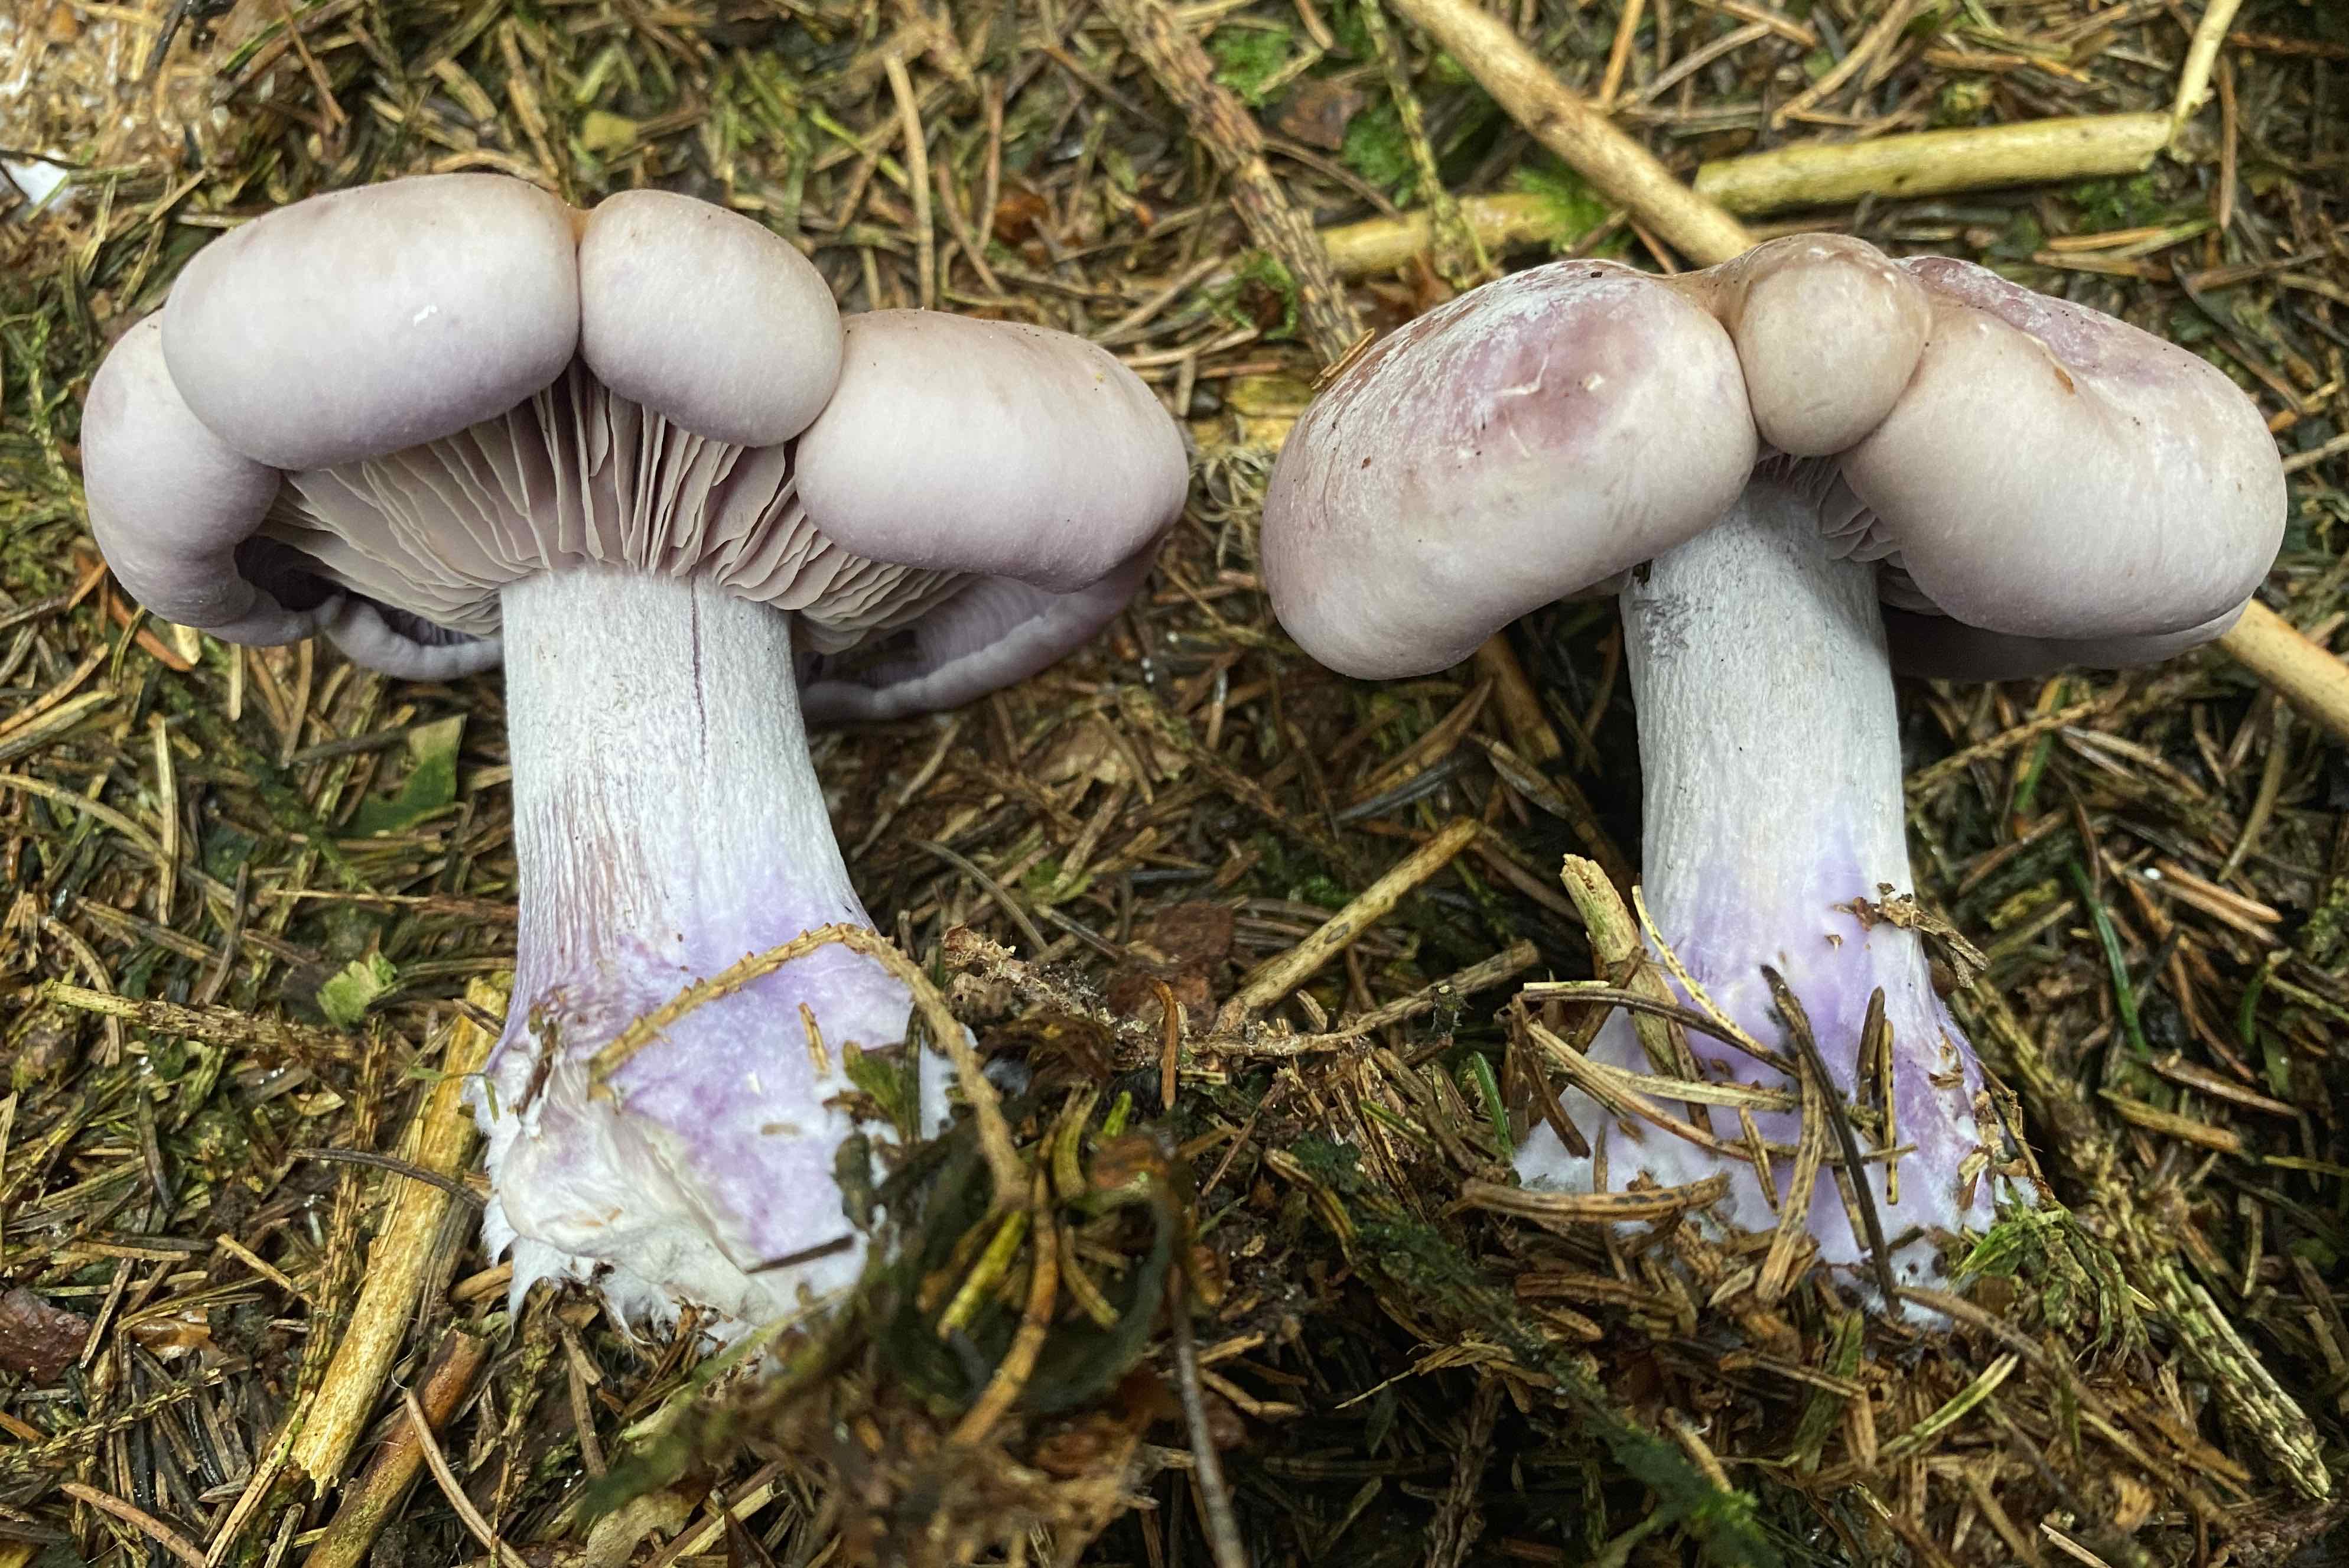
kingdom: Fungi
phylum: Basidiomycota
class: Agaricomycetes
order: Agaricales
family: Tricholomataceae
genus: Lepista
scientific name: Lepista nuda
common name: violet hekseringshat
